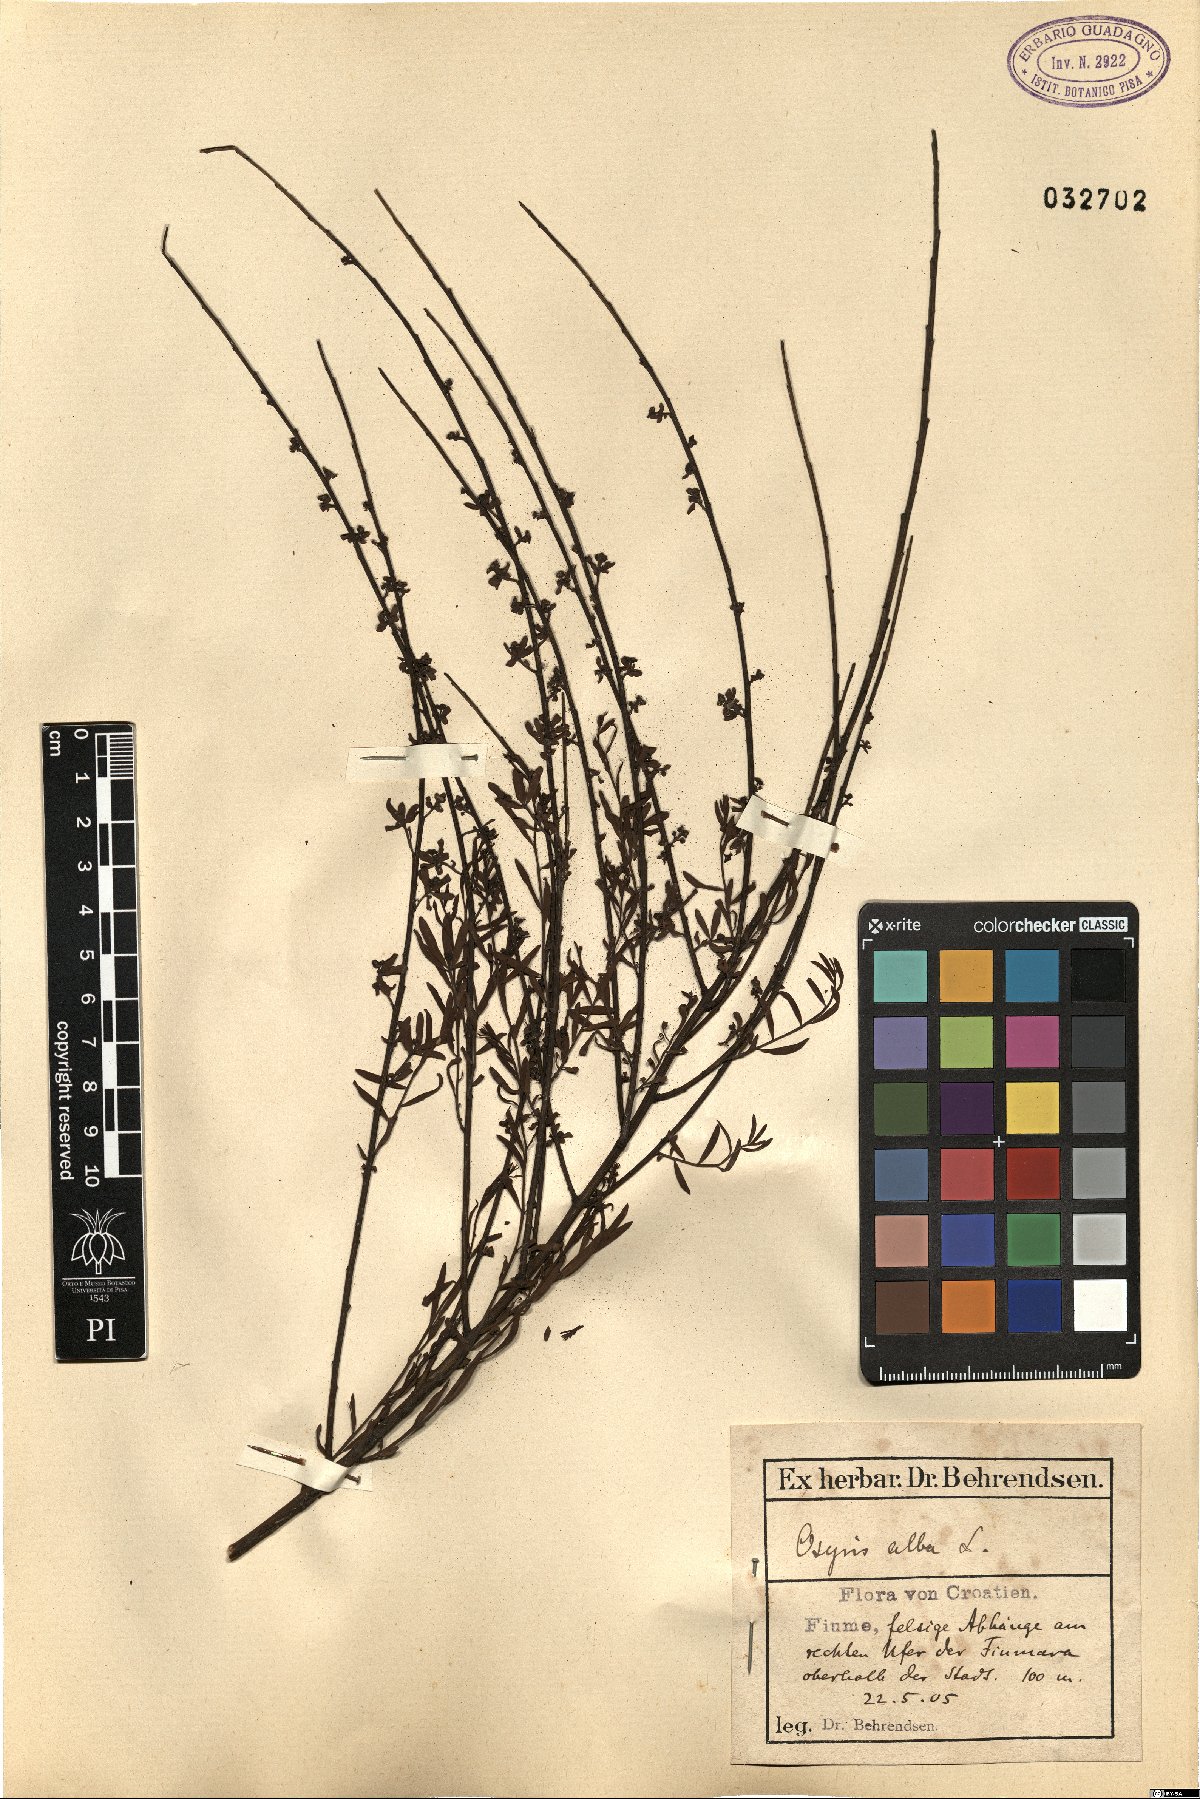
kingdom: Plantae
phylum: Tracheophyta
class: Magnoliopsida
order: Santalales
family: Santalaceae
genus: Osyris
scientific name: Osyris alba
